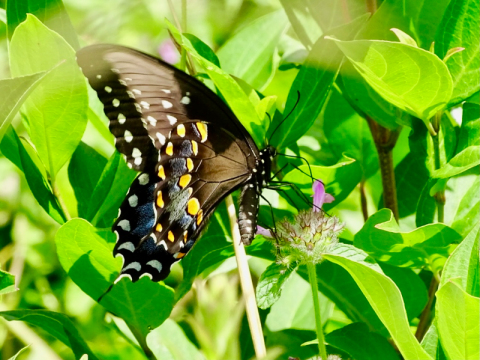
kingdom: Animalia
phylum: Arthropoda
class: Insecta
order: Lepidoptera
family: Papilionidae
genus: Pterourus
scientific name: Pterourus troilus
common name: Spicebush Swallowtail
